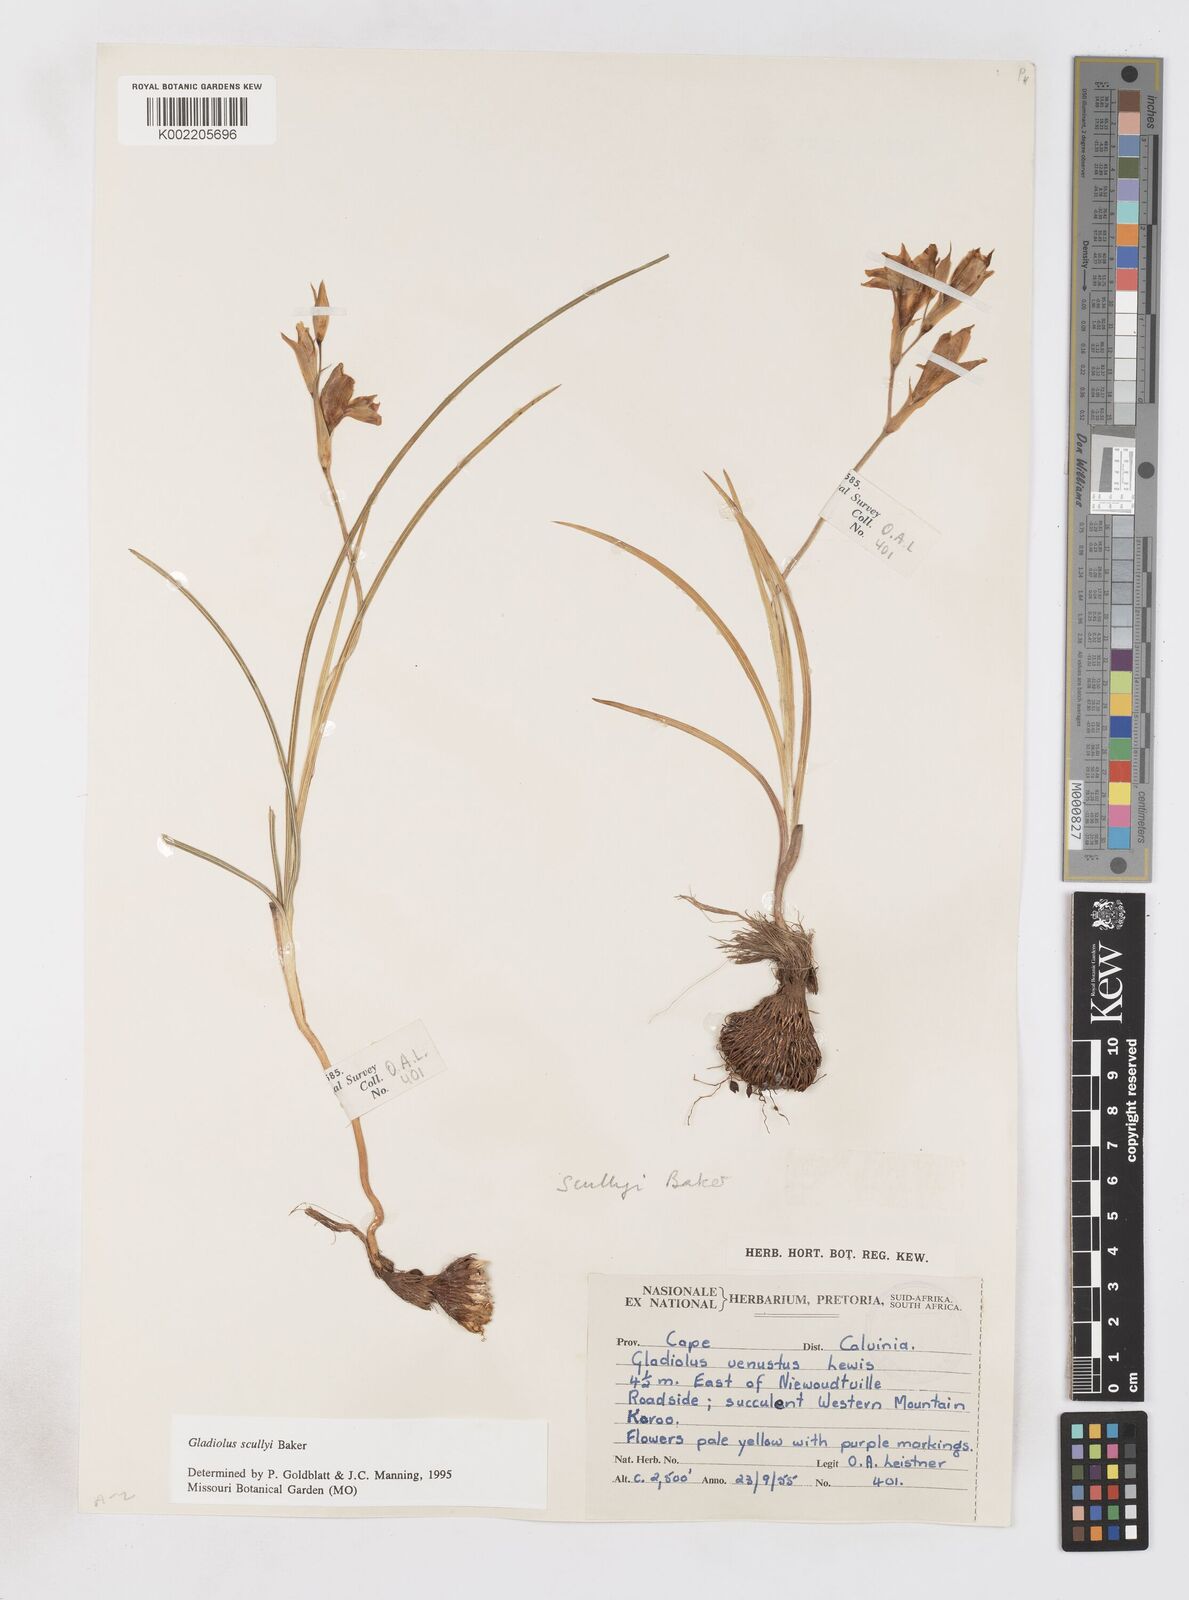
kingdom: Plantae
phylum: Tracheophyta
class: Liliopsida
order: Asparagales
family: Iridaceae
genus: Gladiolus
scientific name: Gladiolus scullyi
